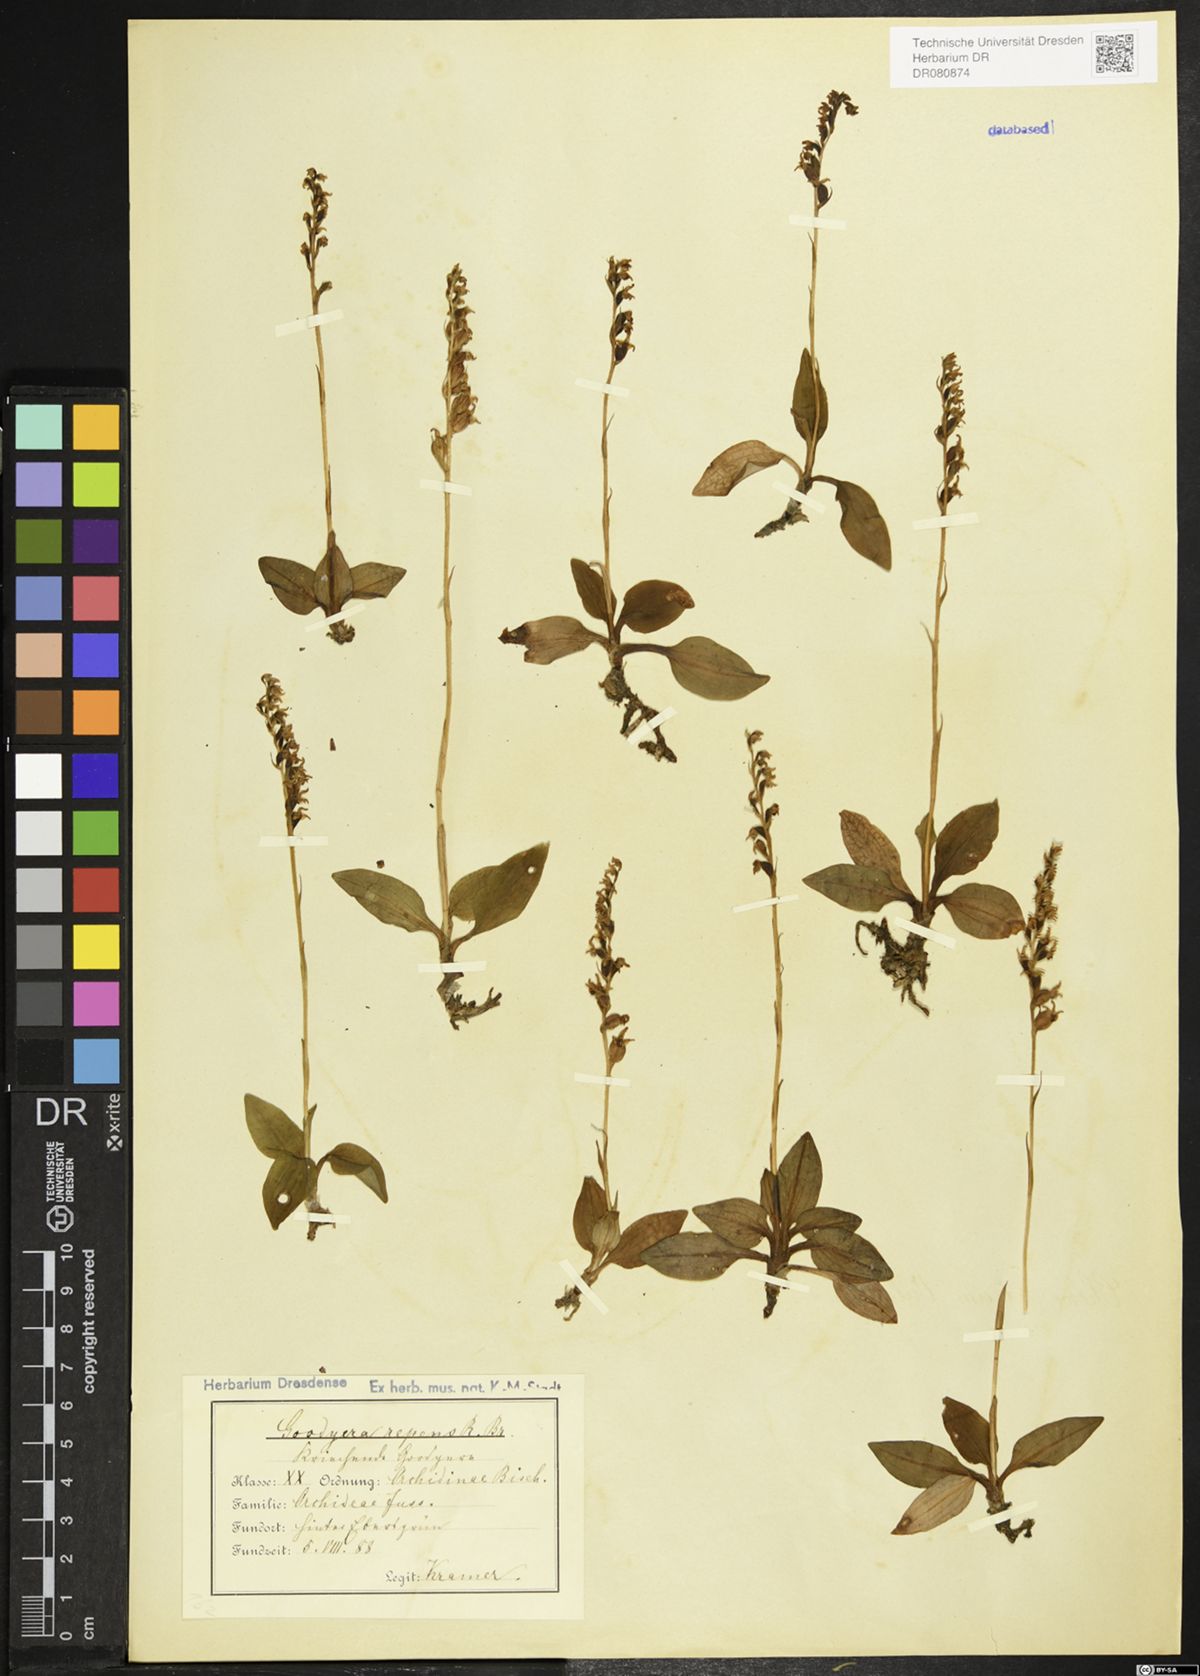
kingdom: Plantae
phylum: Tracheophyta
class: Liliopsida
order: Asparagales
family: Orchidaceae
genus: Goodyera
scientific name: Goodyera repens
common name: Creeping lady's-tresses
